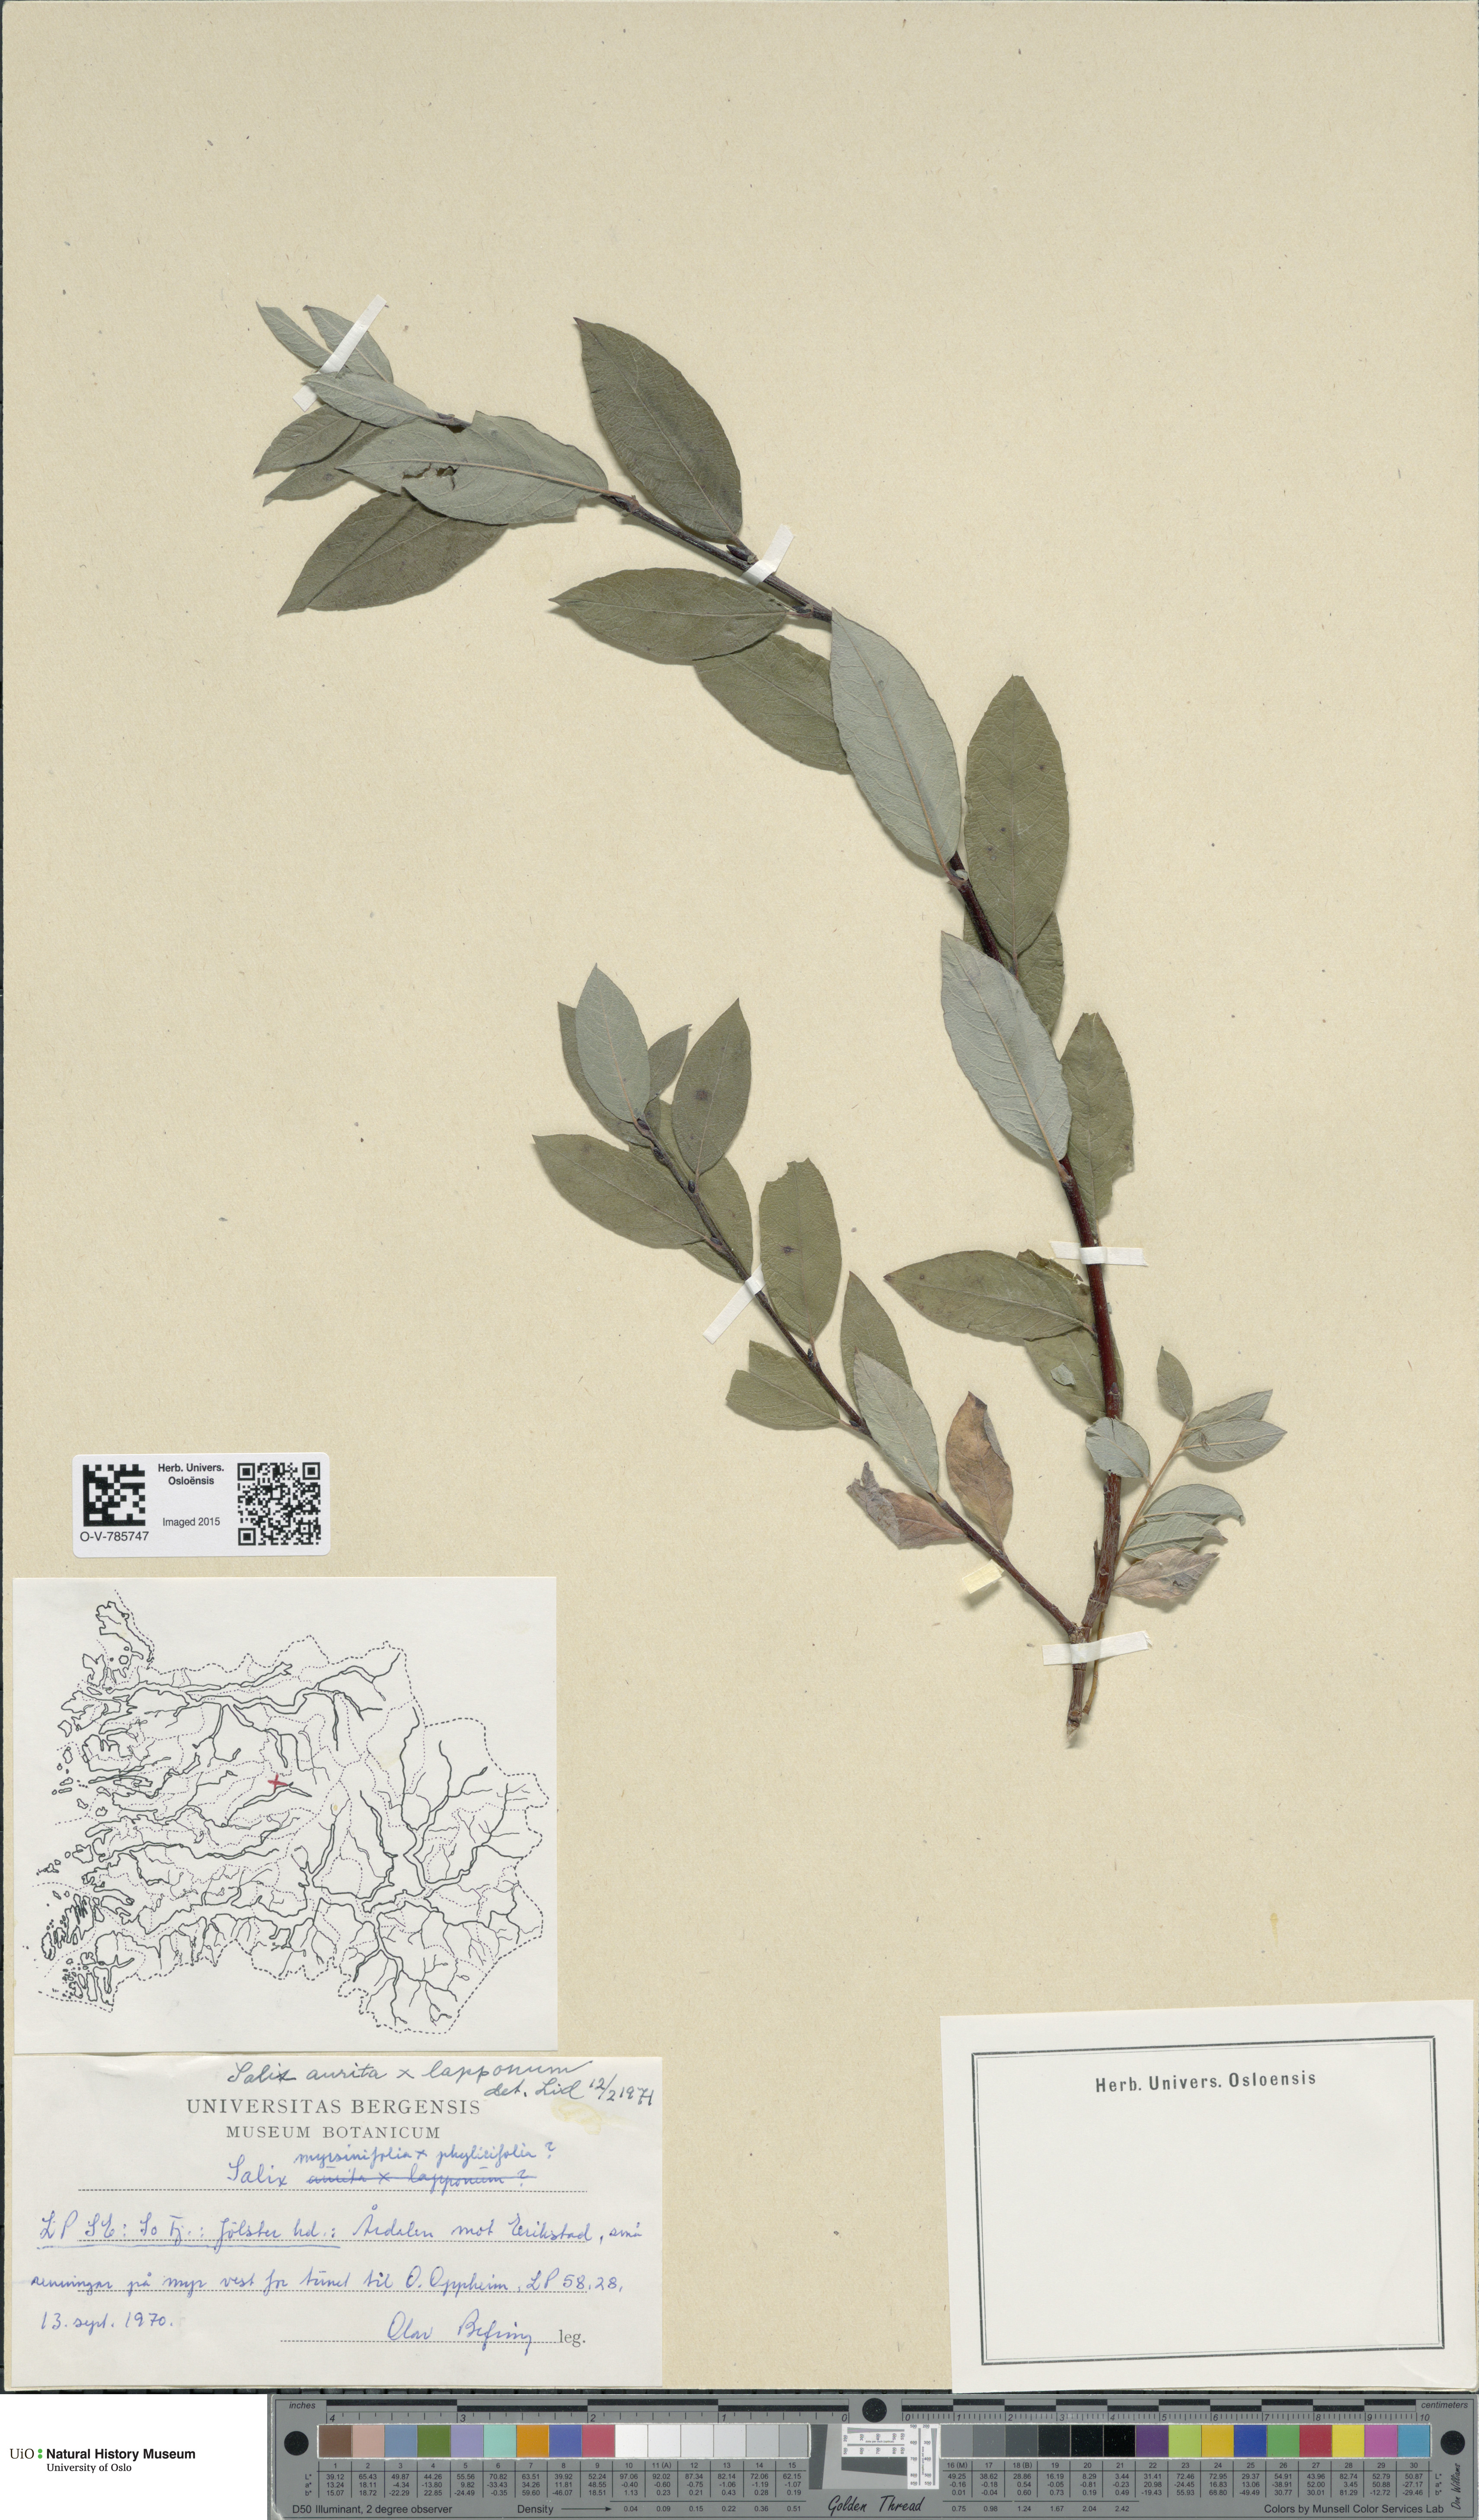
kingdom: Plantae
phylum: Tracheophyta
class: Magnoliopsida
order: Malpighiales
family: Salicaceae
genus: Salix
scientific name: Salix
